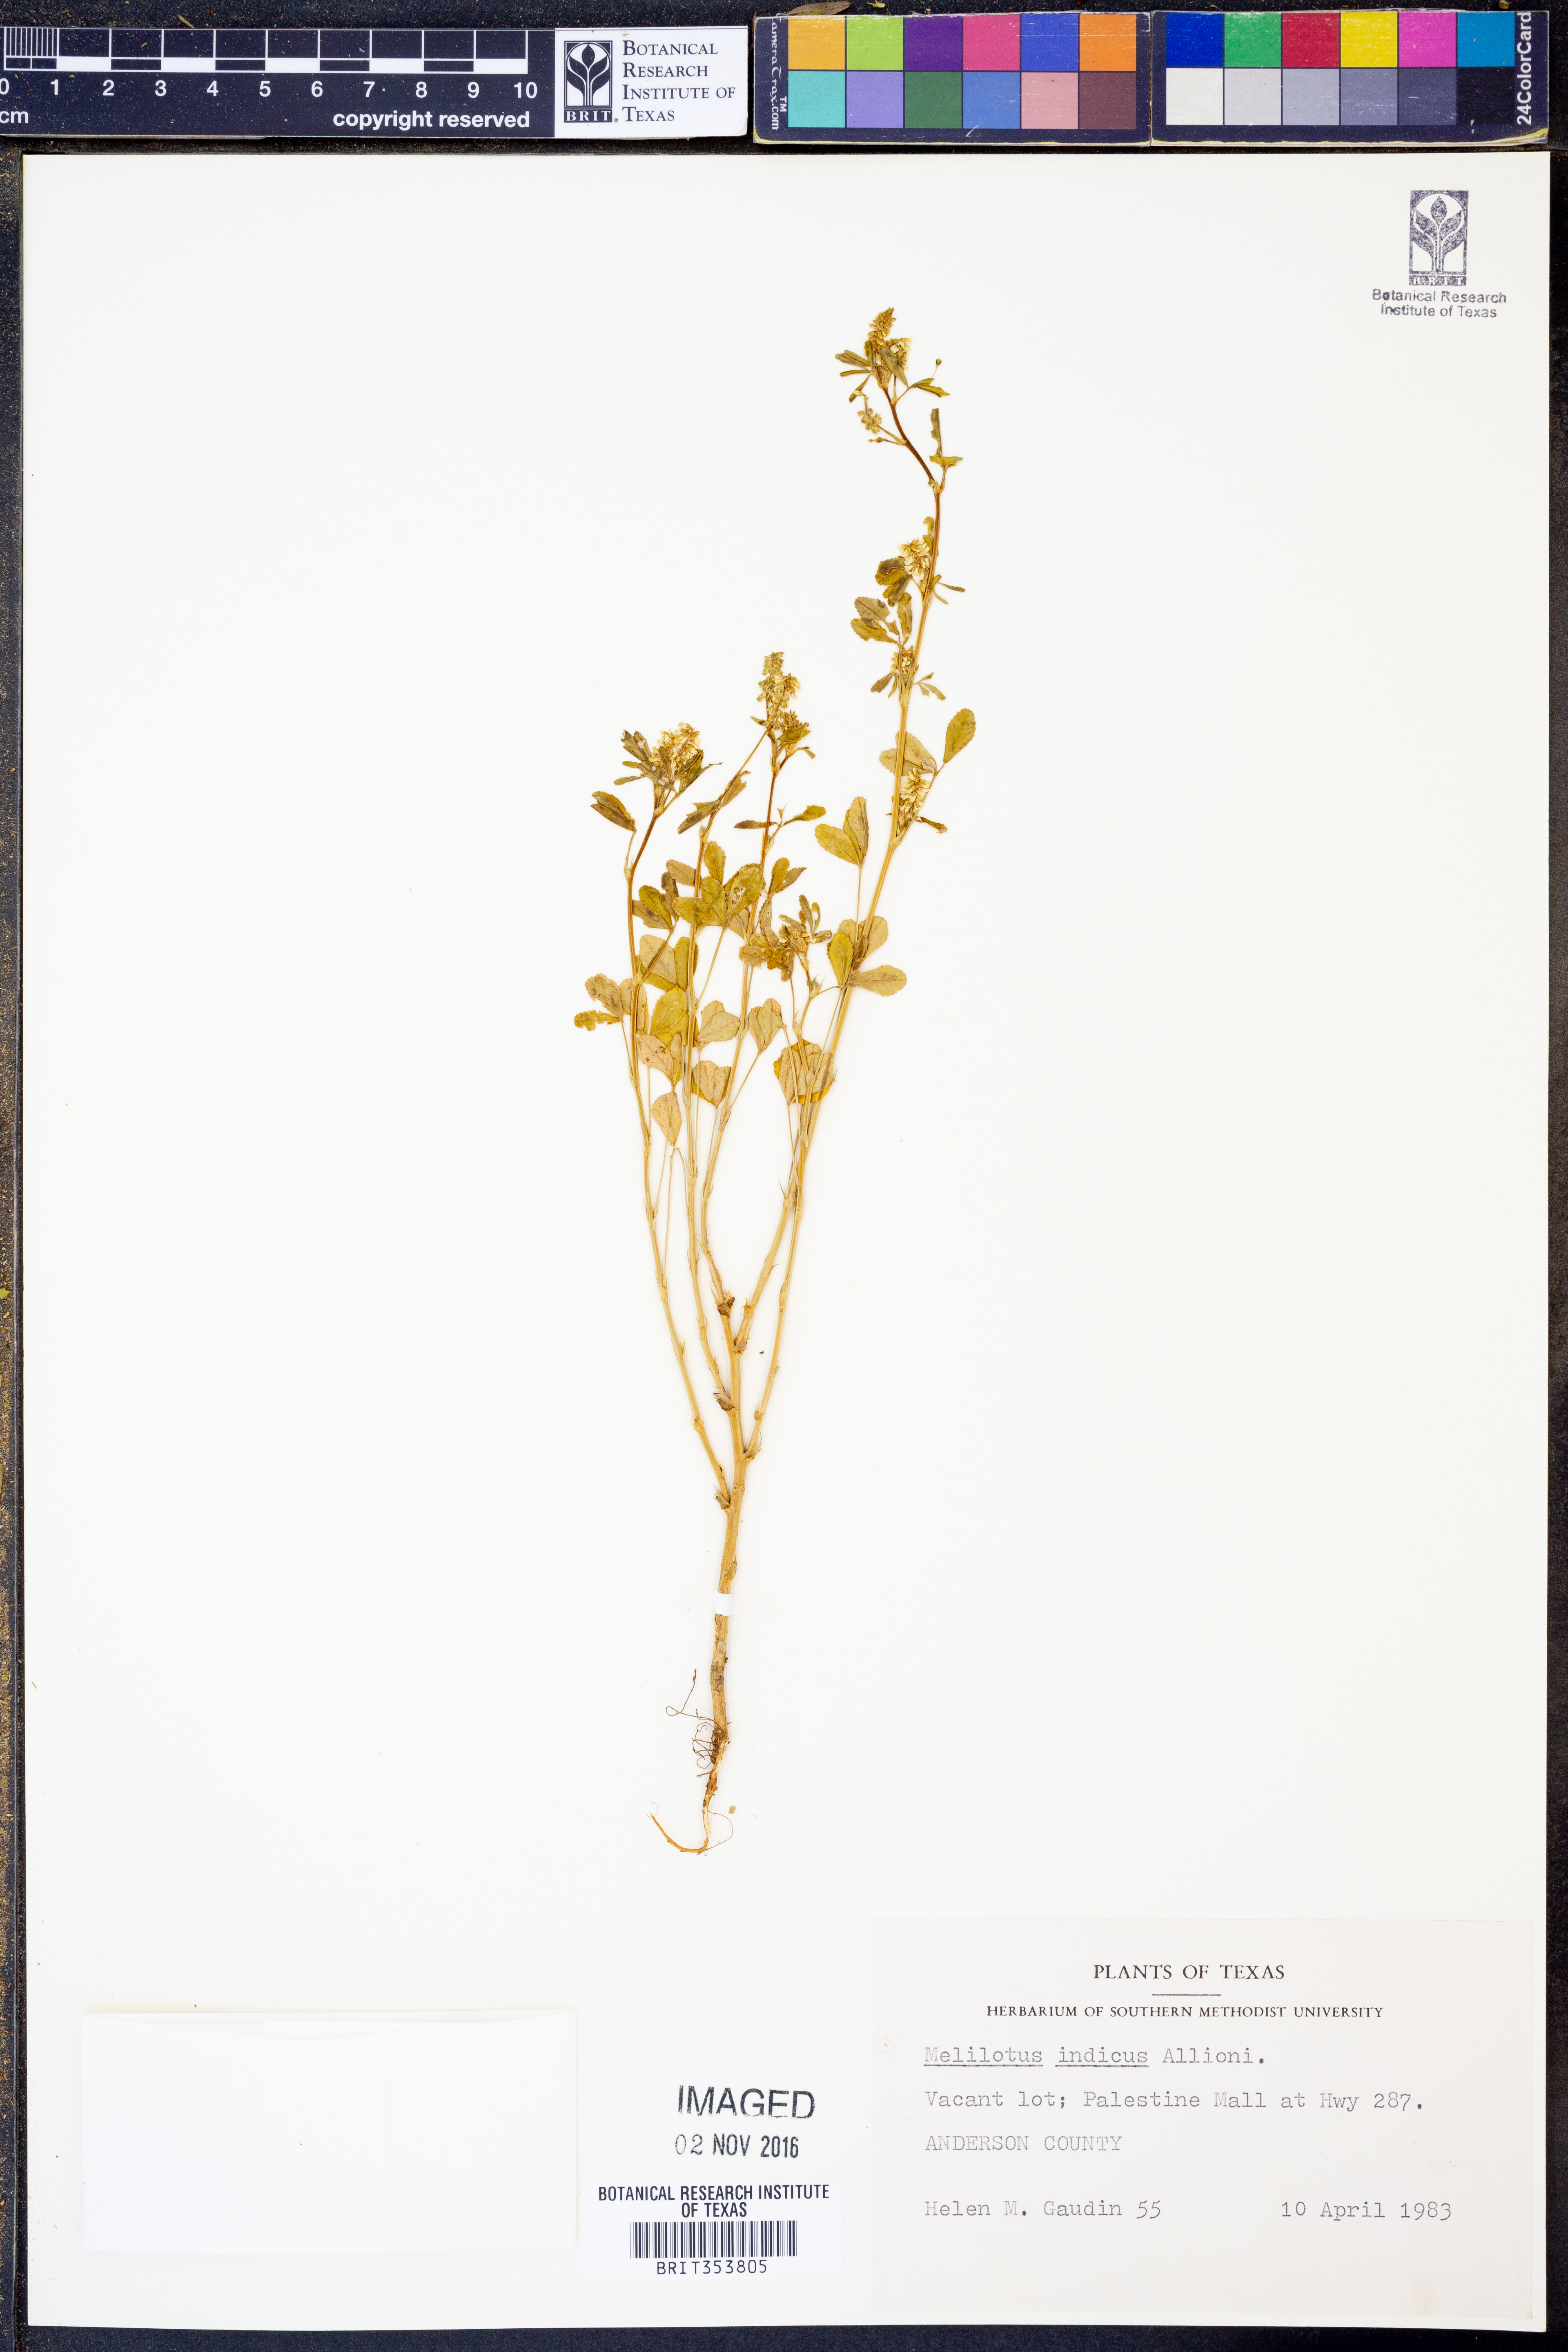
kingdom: Plantae
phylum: Tracheophyta
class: Magnoliopsida
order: Fabales
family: Fabaceae
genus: Melilotus
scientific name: Melilotus indicus
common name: Small melilot
